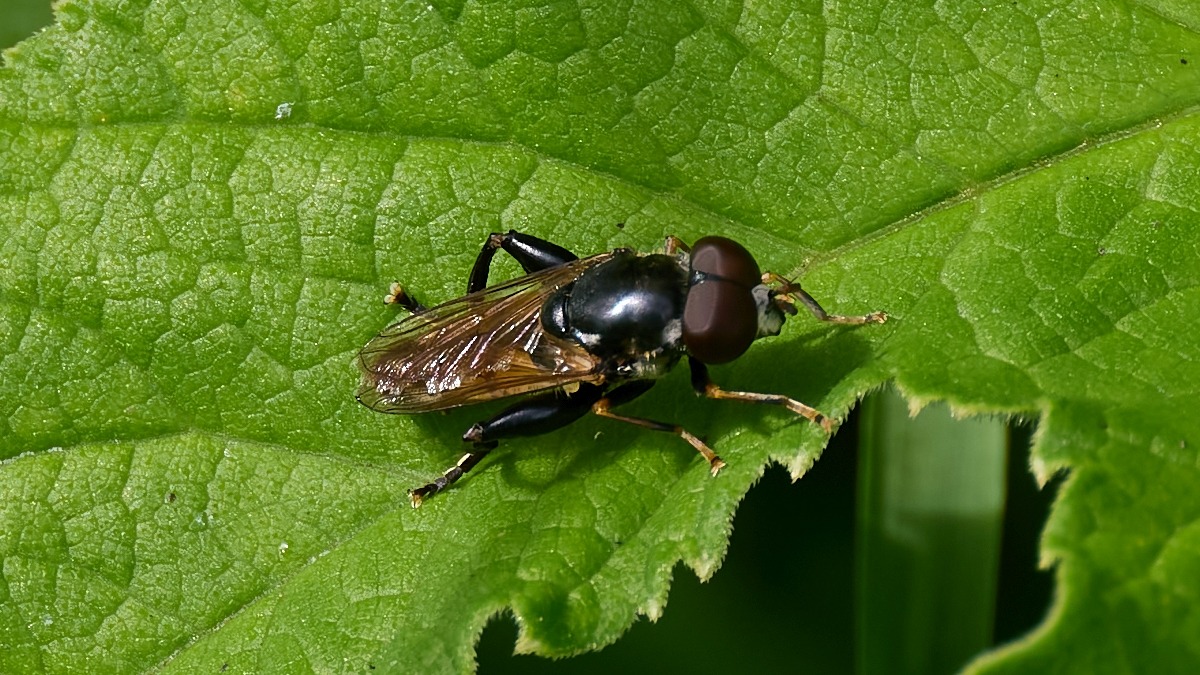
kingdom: Animalia
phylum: Arthropoda
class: Insecta
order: Diptera
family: Syrphidae
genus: Tropidia
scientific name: Tropidia scita
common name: Køl-svirreflue
